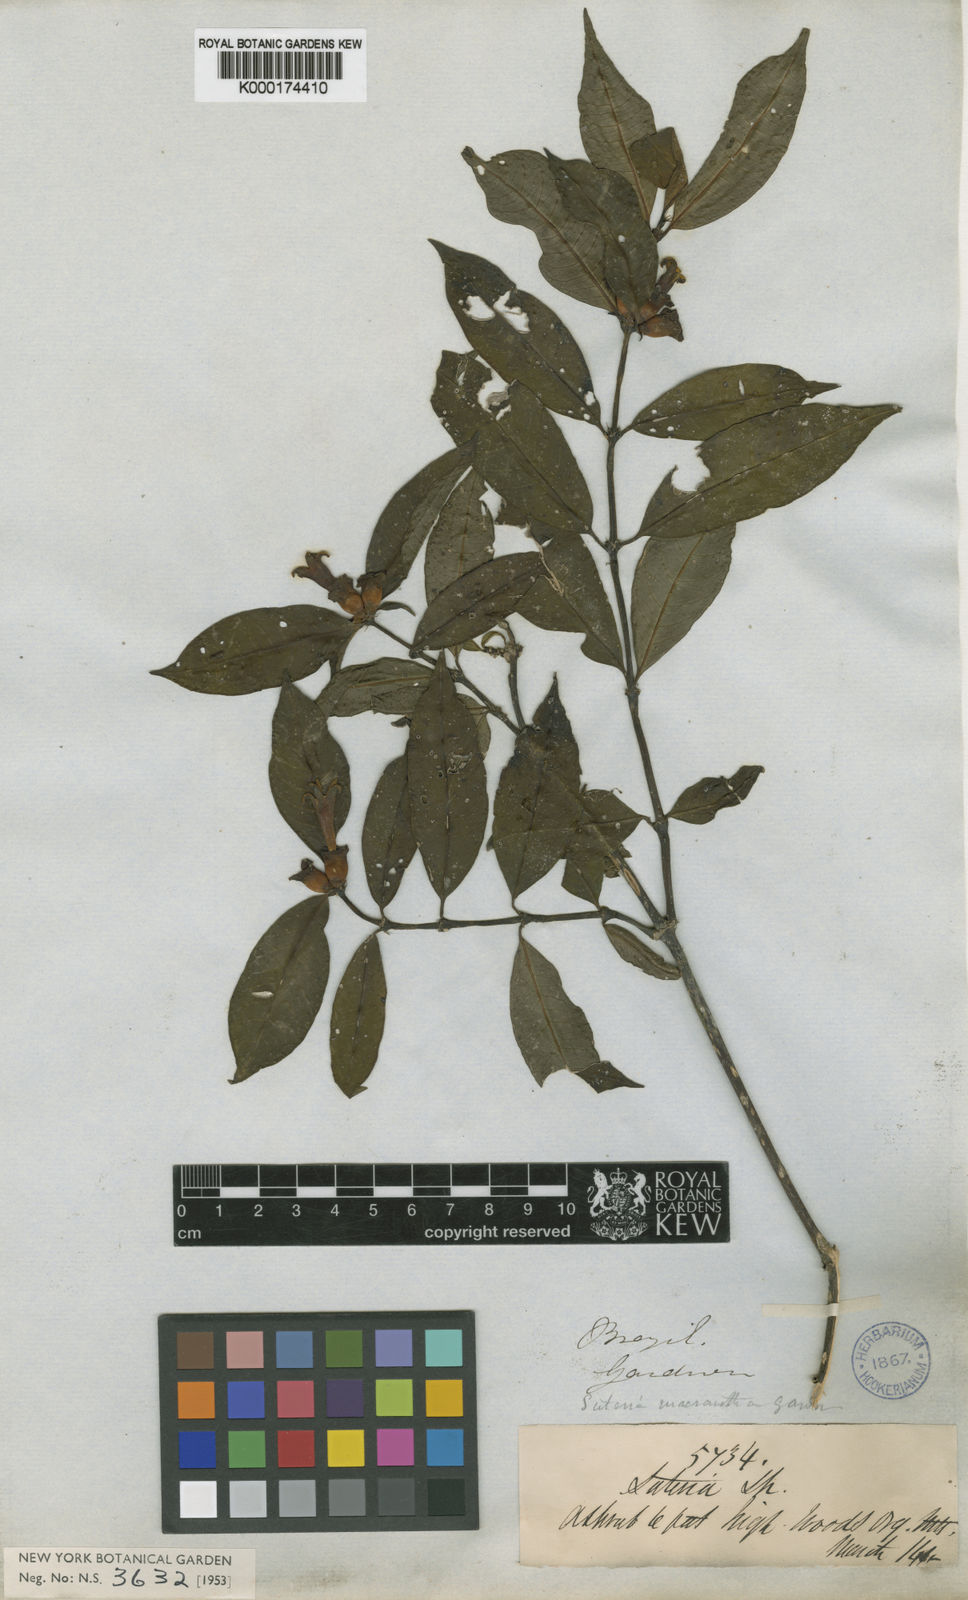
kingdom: Plantae
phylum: Tracheophyta
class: Magnoliopsida
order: Gentianales
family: Rubiaceae
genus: Psychotria
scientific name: Psychotria
